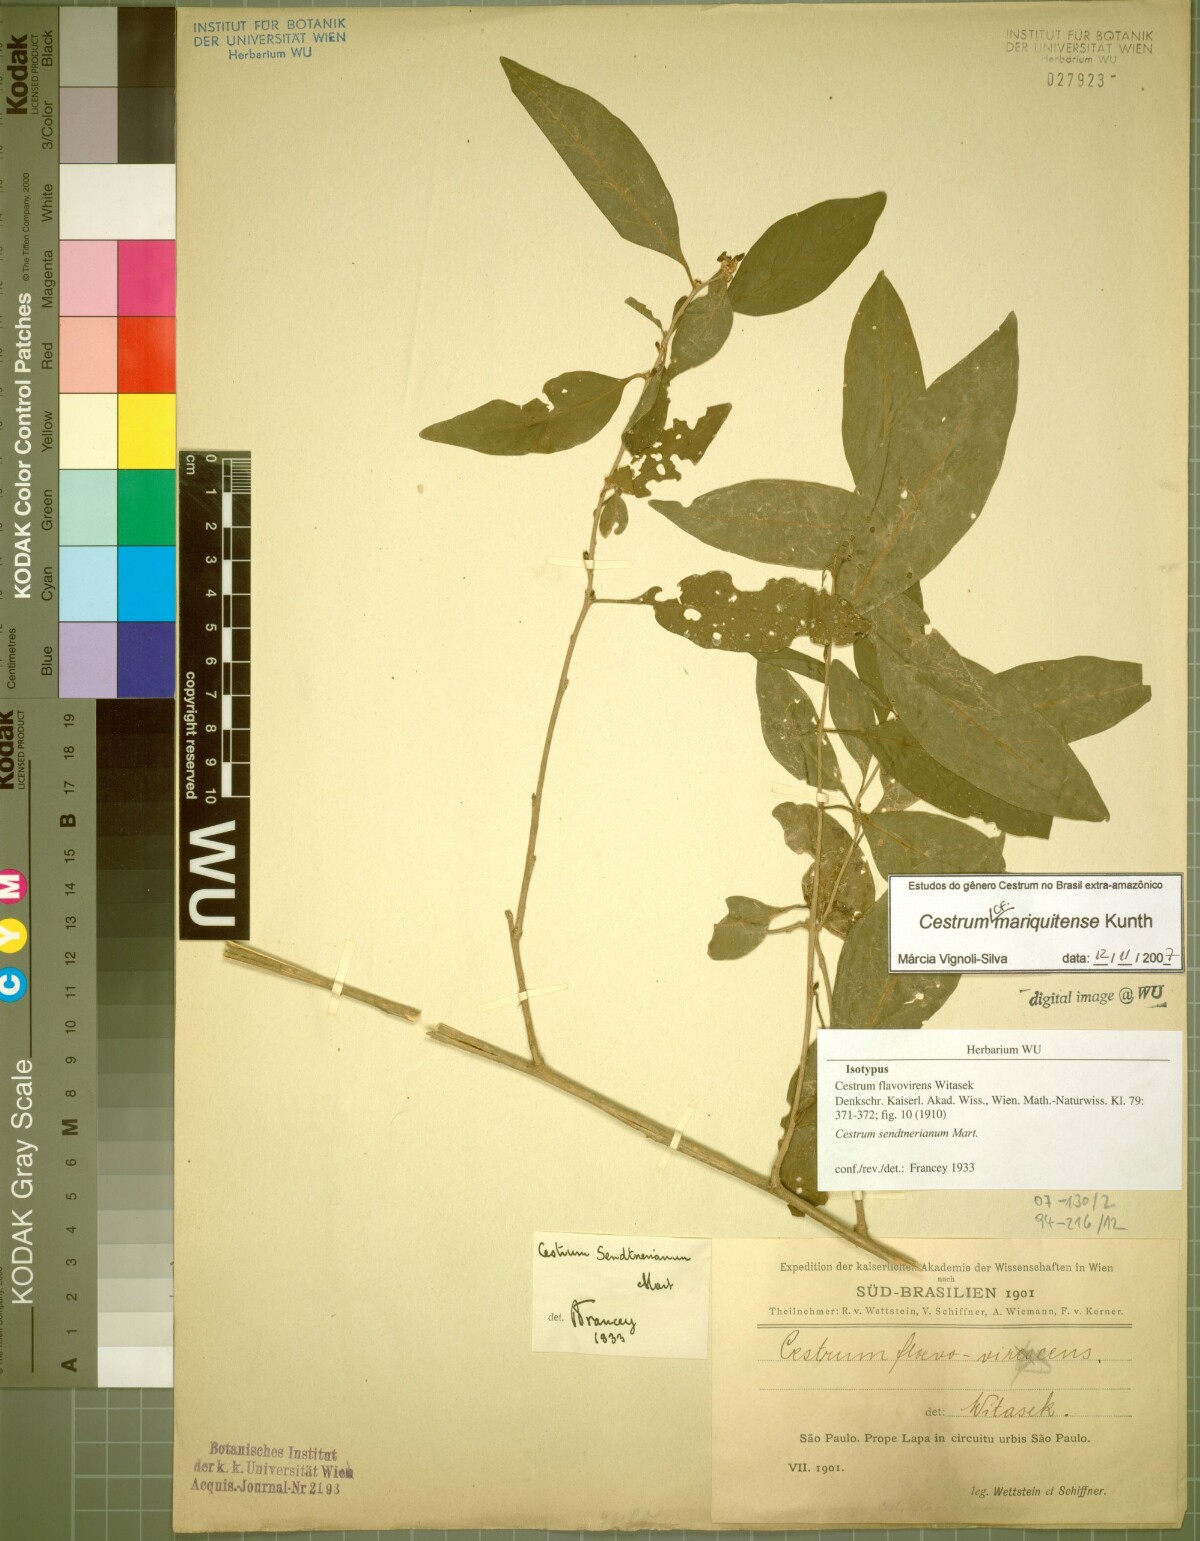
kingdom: Plantae
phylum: Tracheophyta
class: Magnoliopsida
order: Solanales
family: Solanaceae
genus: Cestrum
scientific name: Cestrum mariquitense
